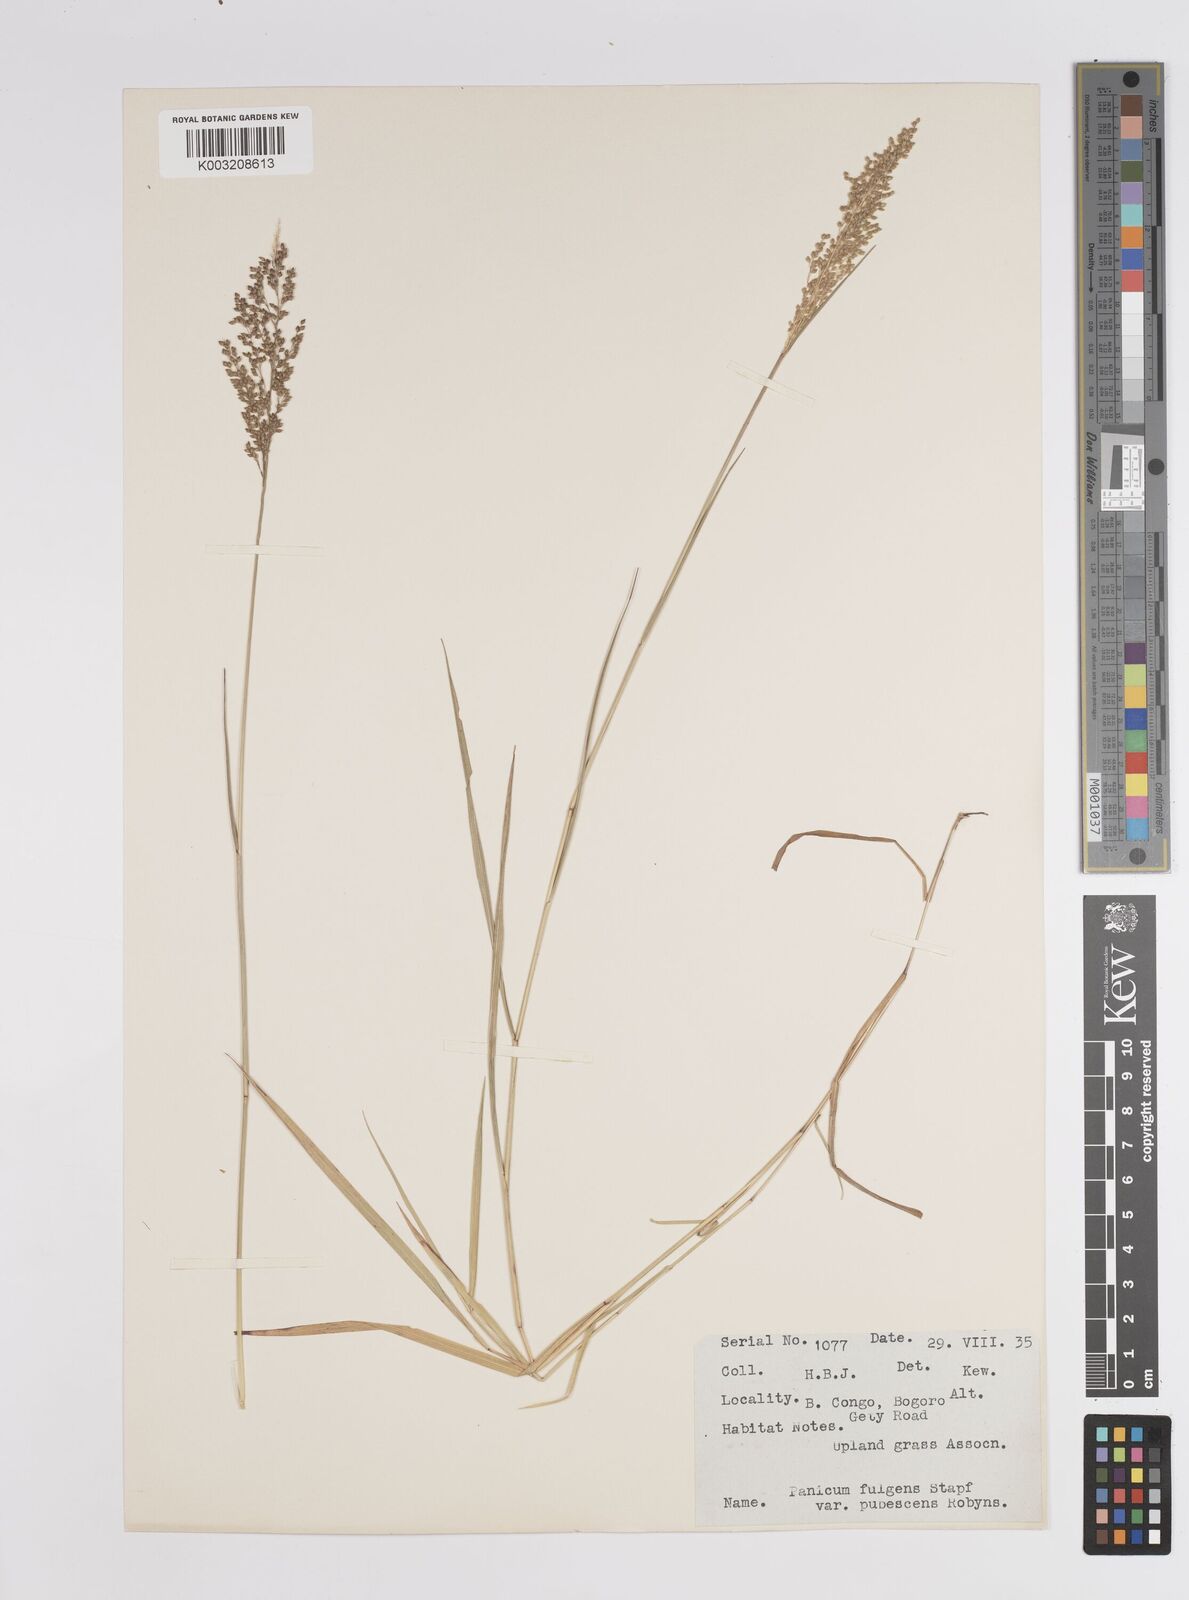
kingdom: Plantae
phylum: Tracheophyta
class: Liliopsida
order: Poales
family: Poaceae
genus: Trichanthecium
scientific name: Trichanthecium nervatum
